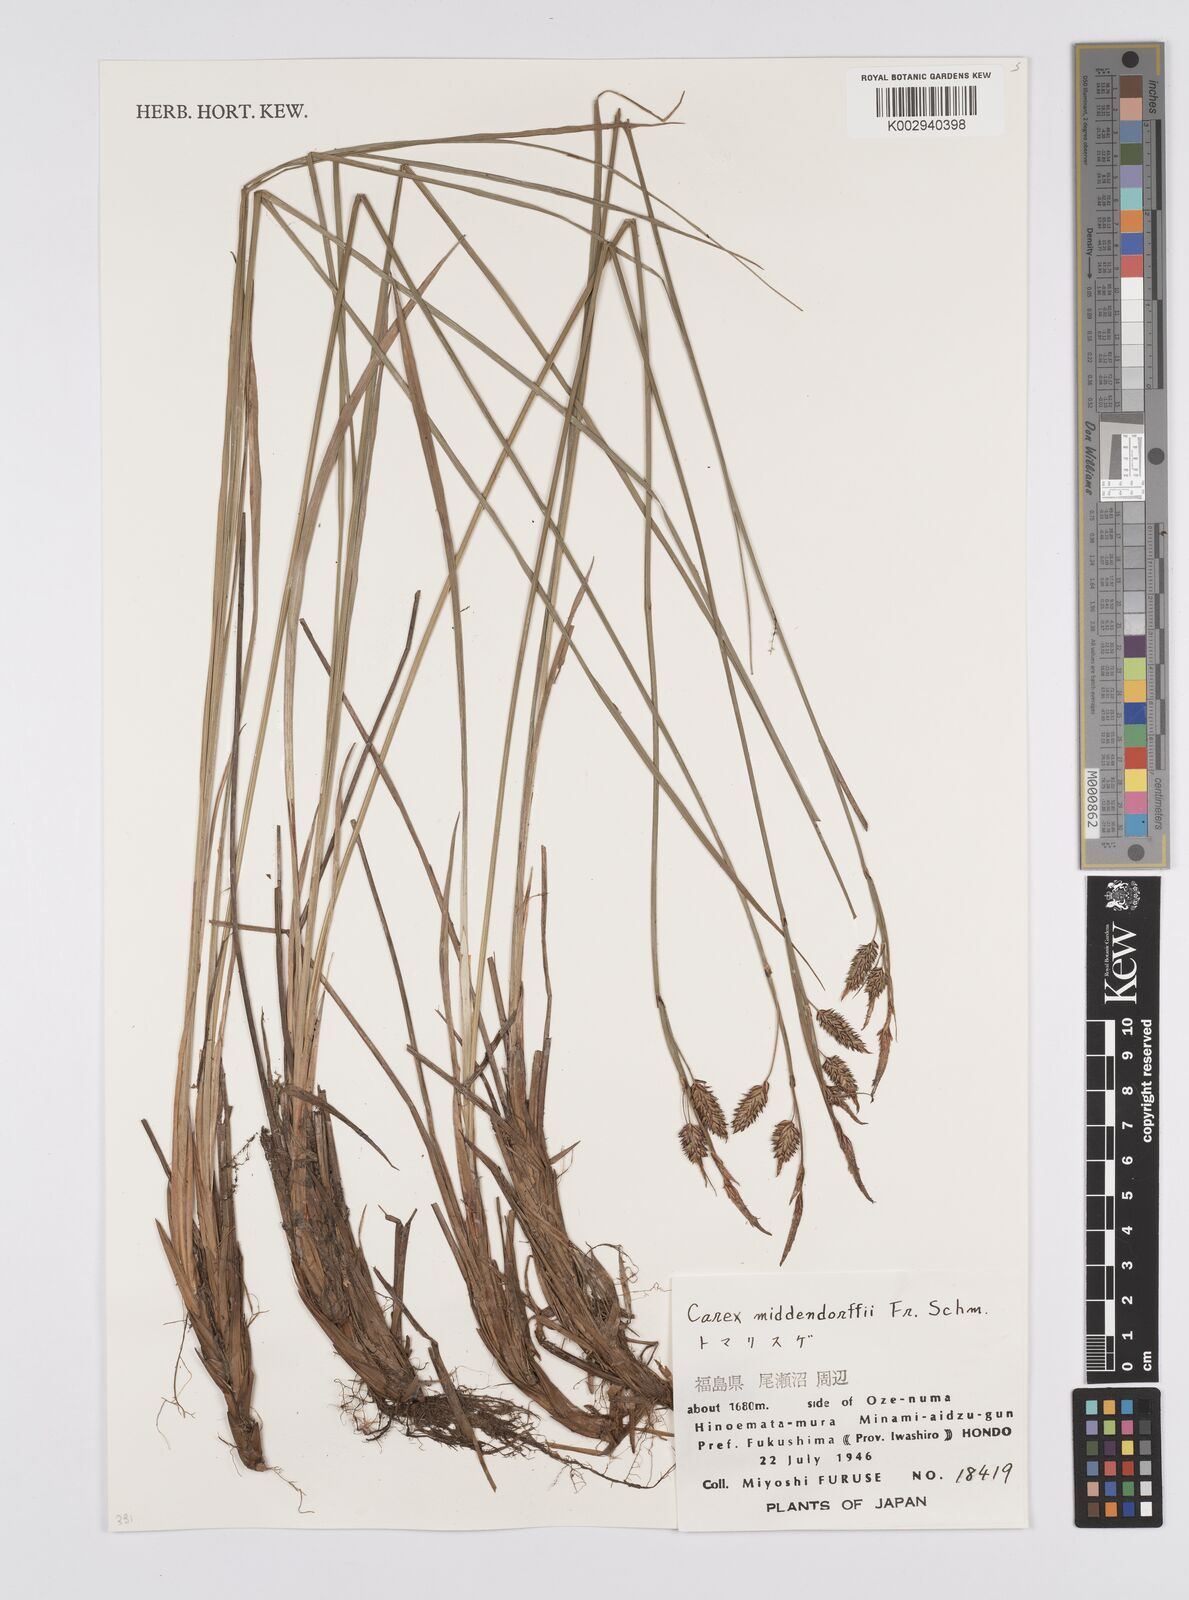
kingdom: Plantae
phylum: Tracheophyta
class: Liliopsida
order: Poales
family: Cyperaceae
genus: Carex
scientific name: Carex middendorffii
